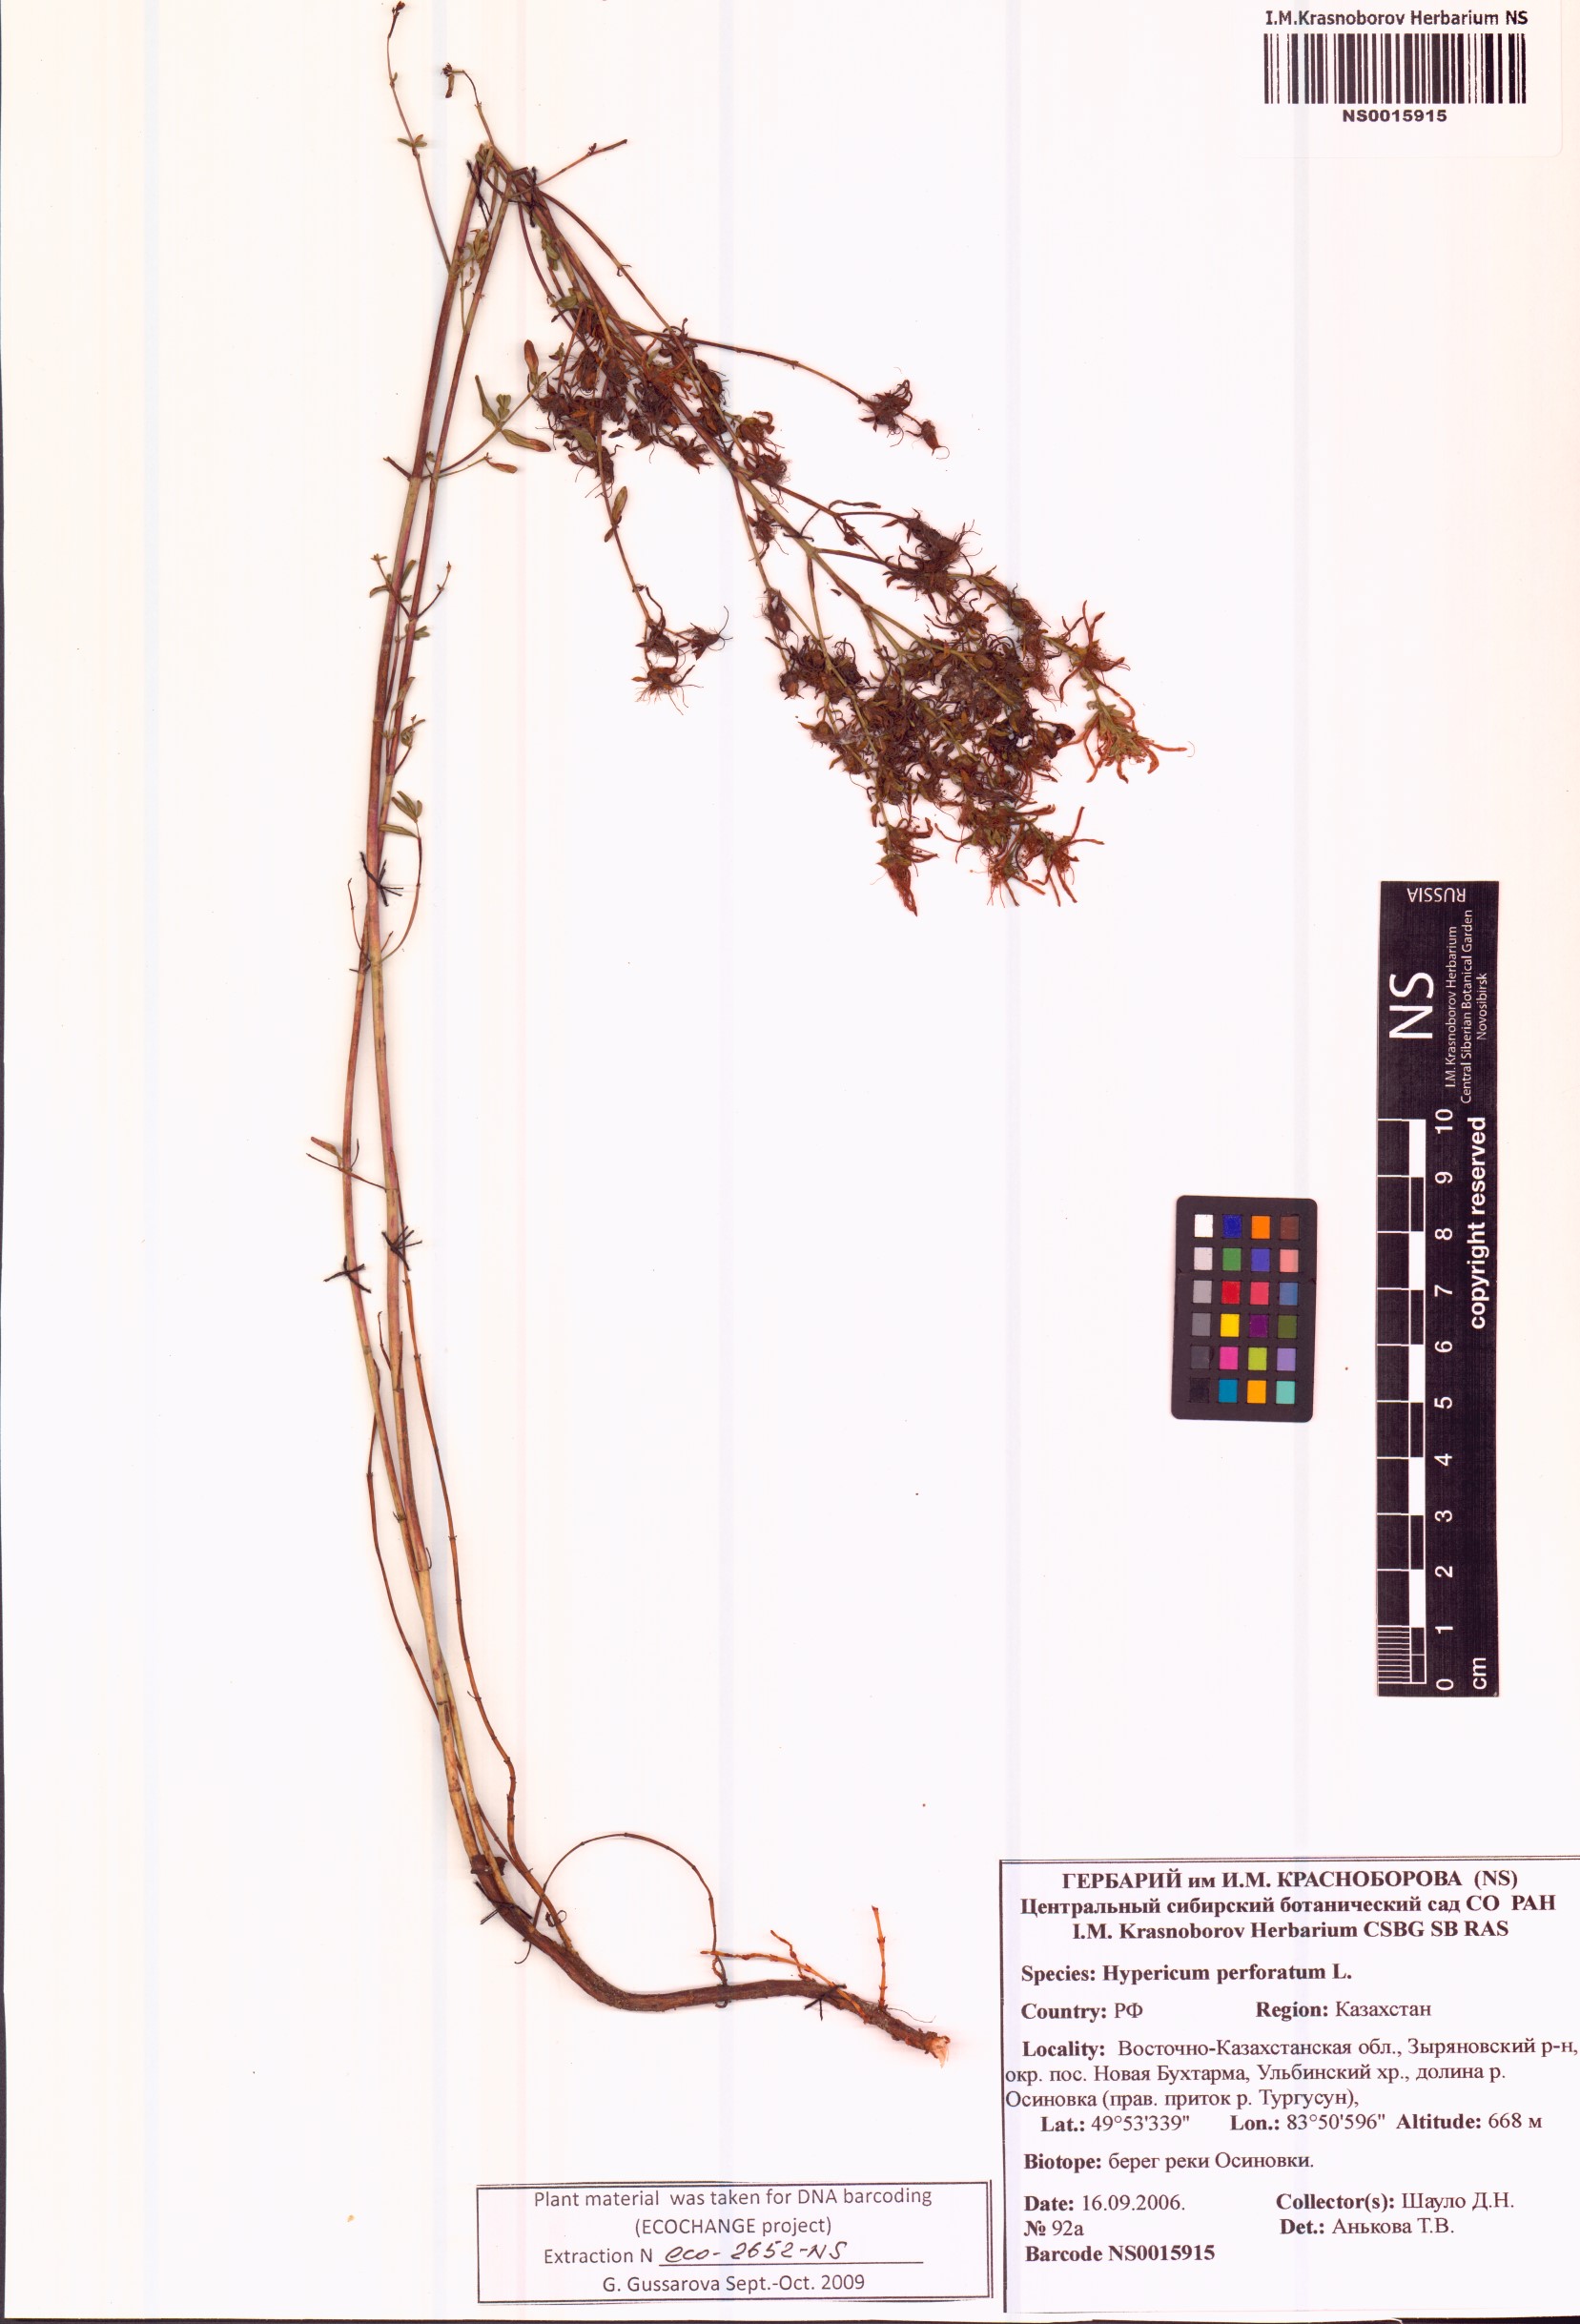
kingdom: Plantae
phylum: Tracheophyta
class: Magnoliopsida
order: Malpighiales
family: Hypericaceae
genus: Hypericum
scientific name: Hypericum perforatum
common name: Common st. johnswort
